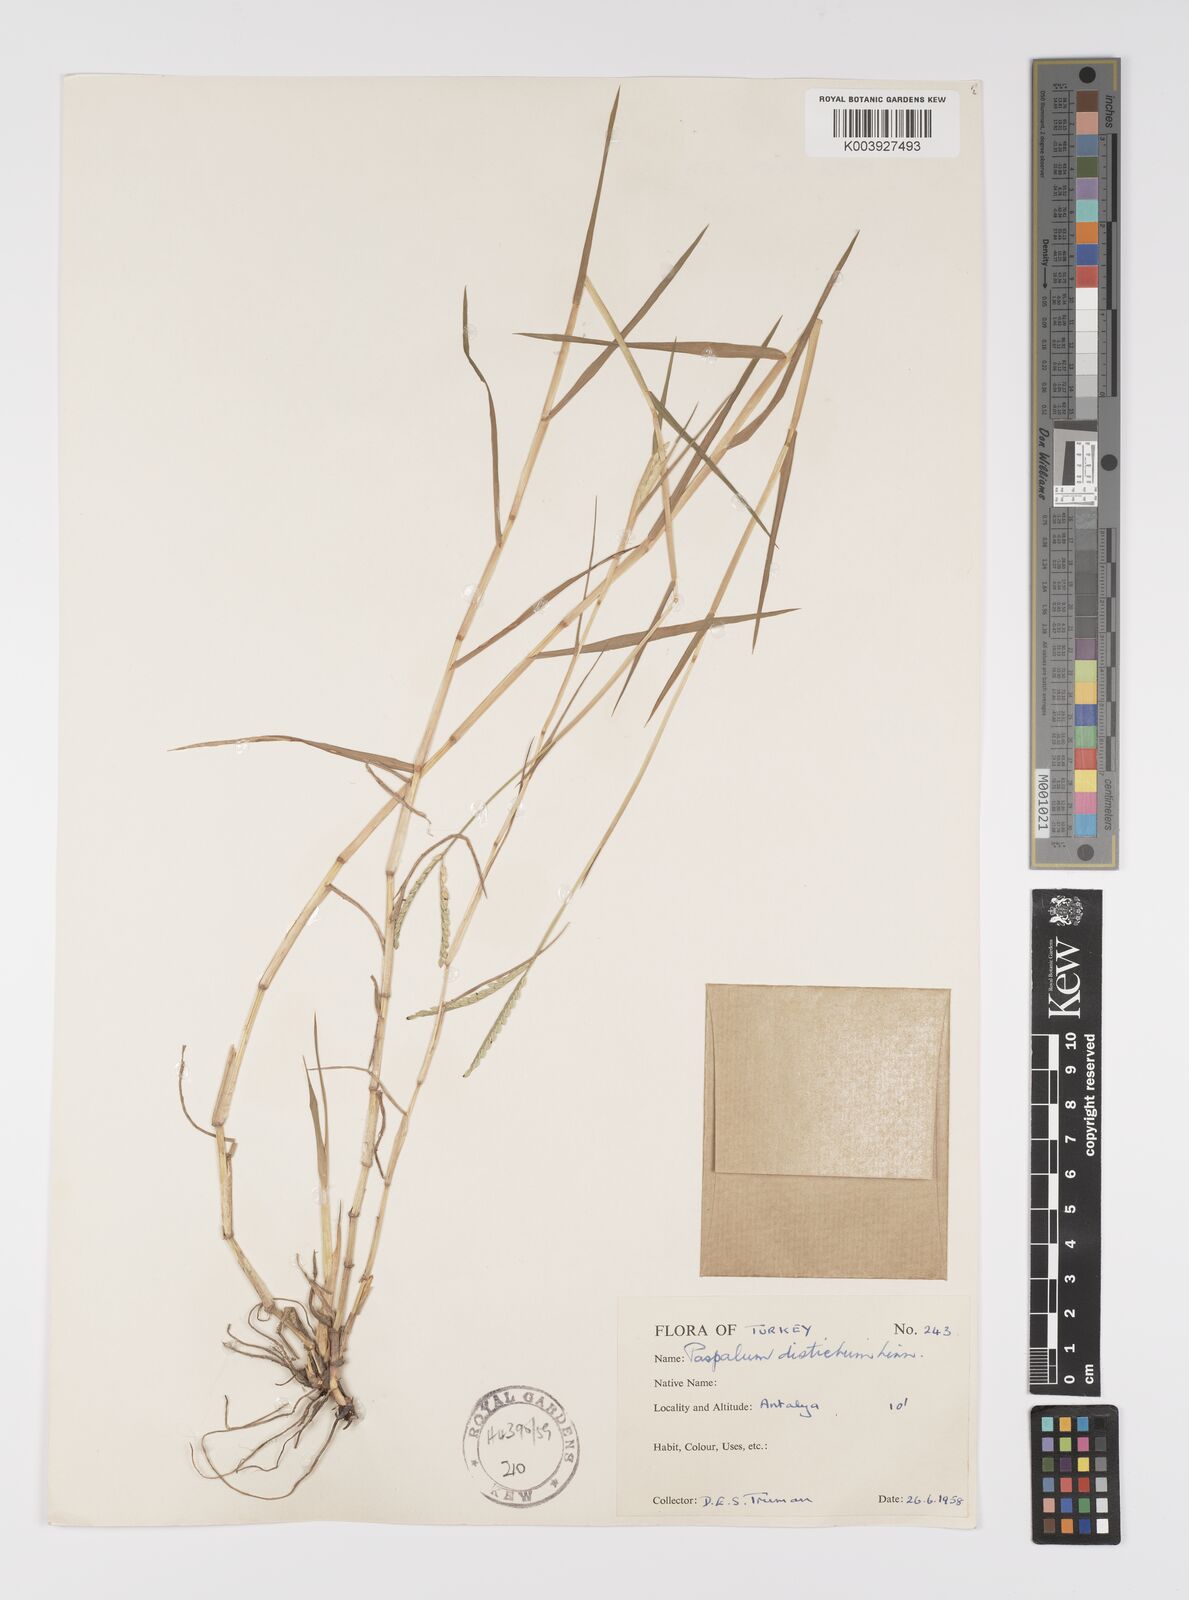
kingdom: Plantae
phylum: Tracheophyta
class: Liliopsida
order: Poales
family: Poaceae
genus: Paspalum
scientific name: Paspalum distichum
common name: Knotgrass
